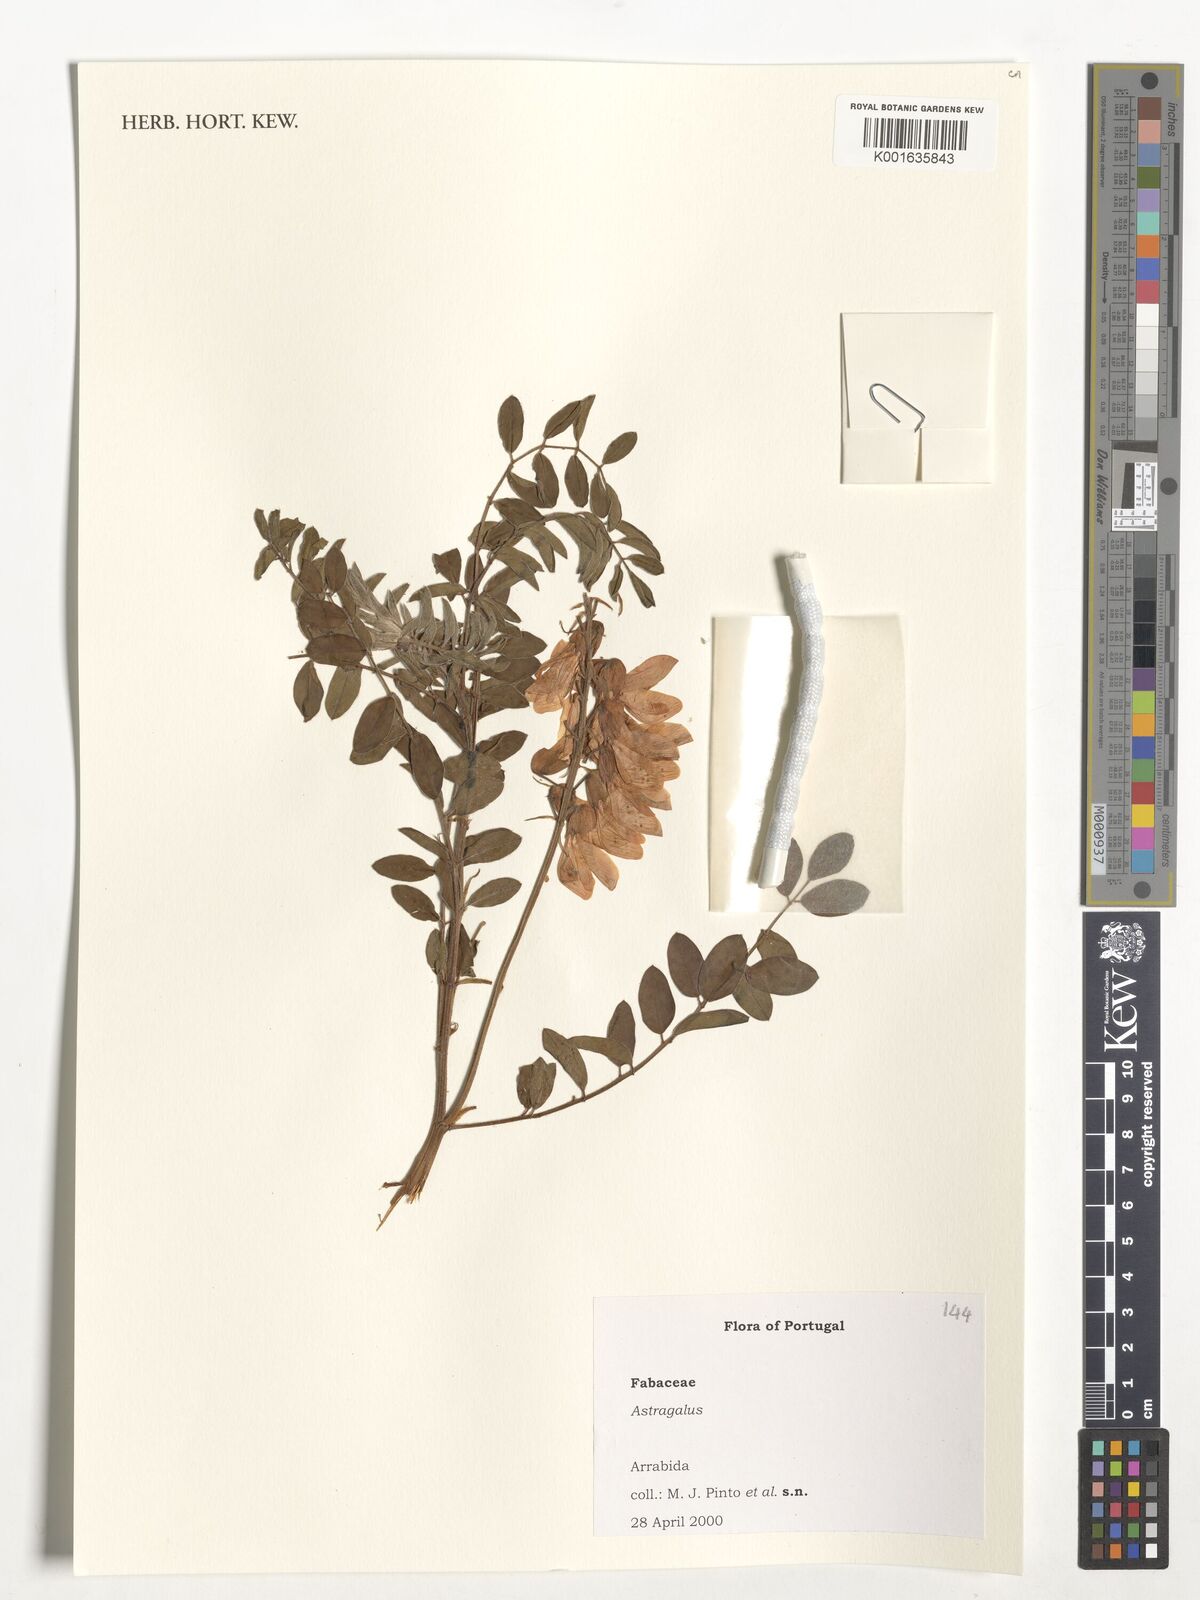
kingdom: Plantae
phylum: Tracheophyta
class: Magnoliopsida
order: Fabales
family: Fabaceae
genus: Astragalus
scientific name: Astragalus
